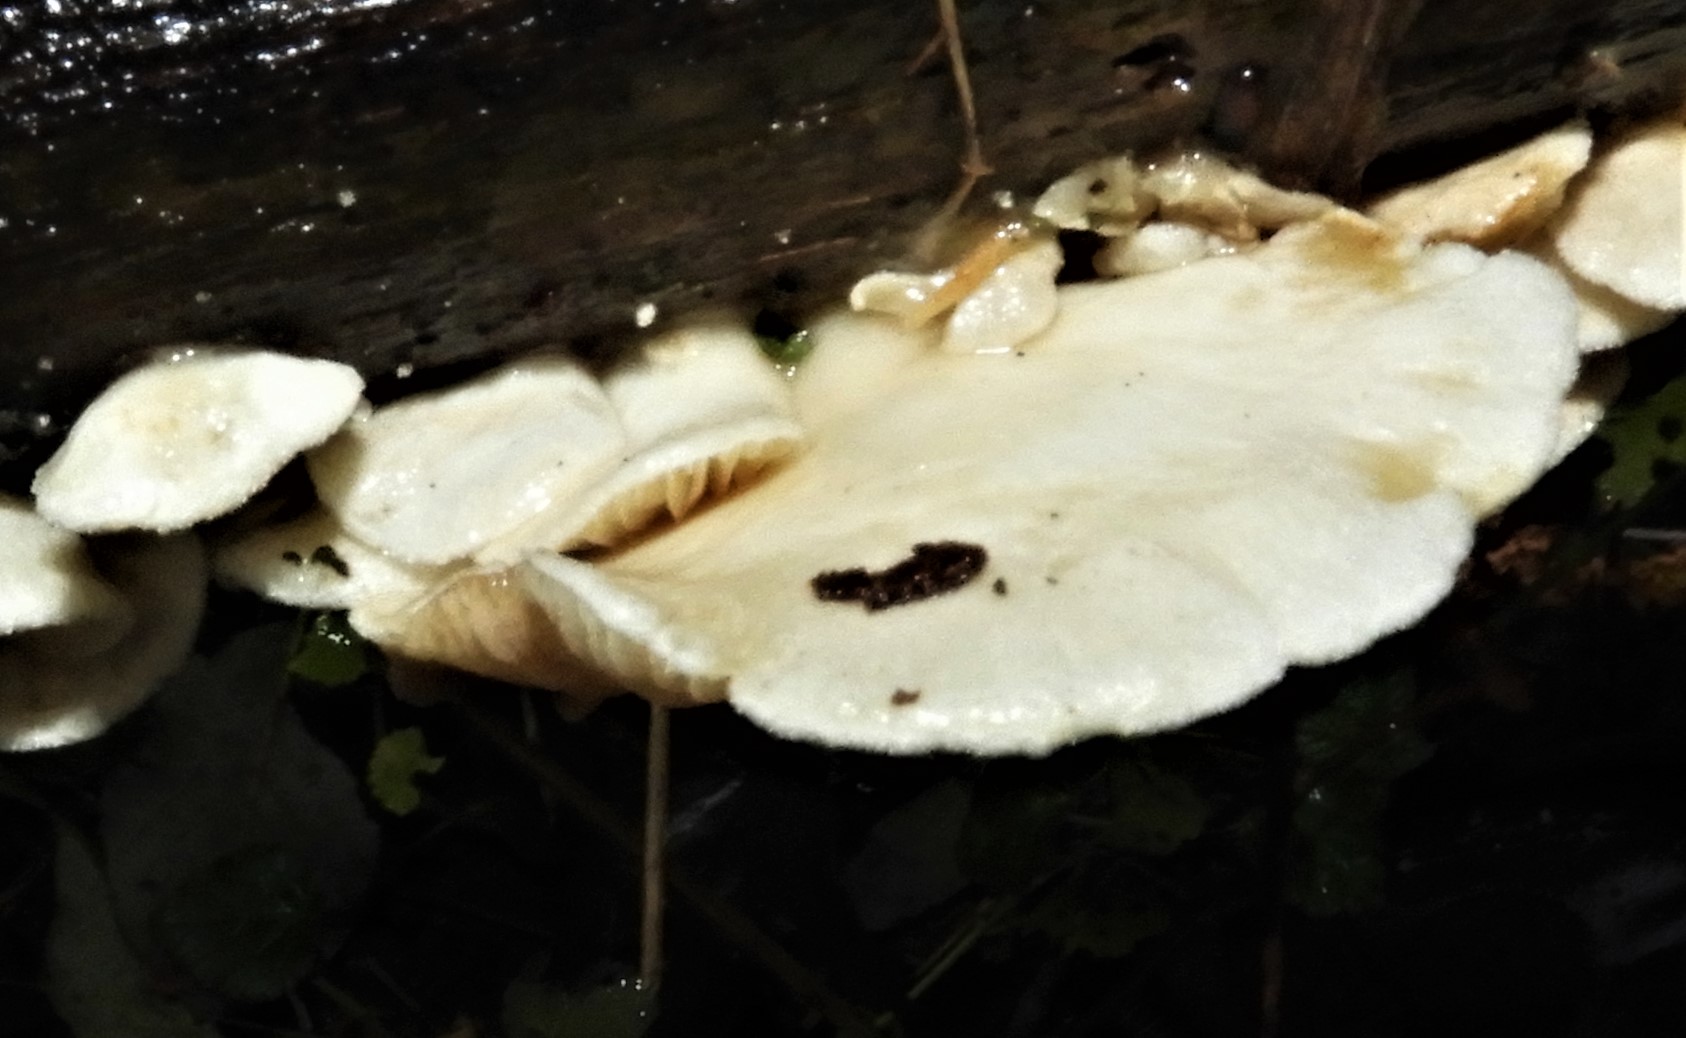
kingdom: Fungi
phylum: Basidiomycota
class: Agaricomycetes
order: Agaricales
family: Crepidotaceae
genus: Crepidotus
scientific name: Crepidotus
